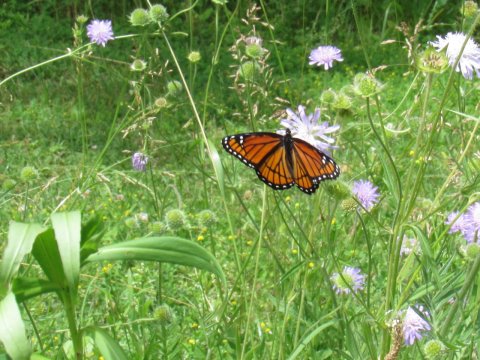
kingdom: Animalia
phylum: Arthropoda
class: Insecta
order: Lepidoptera
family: Nymphalidae
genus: Limenitis
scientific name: Limenitis archippus
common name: Viceroy
